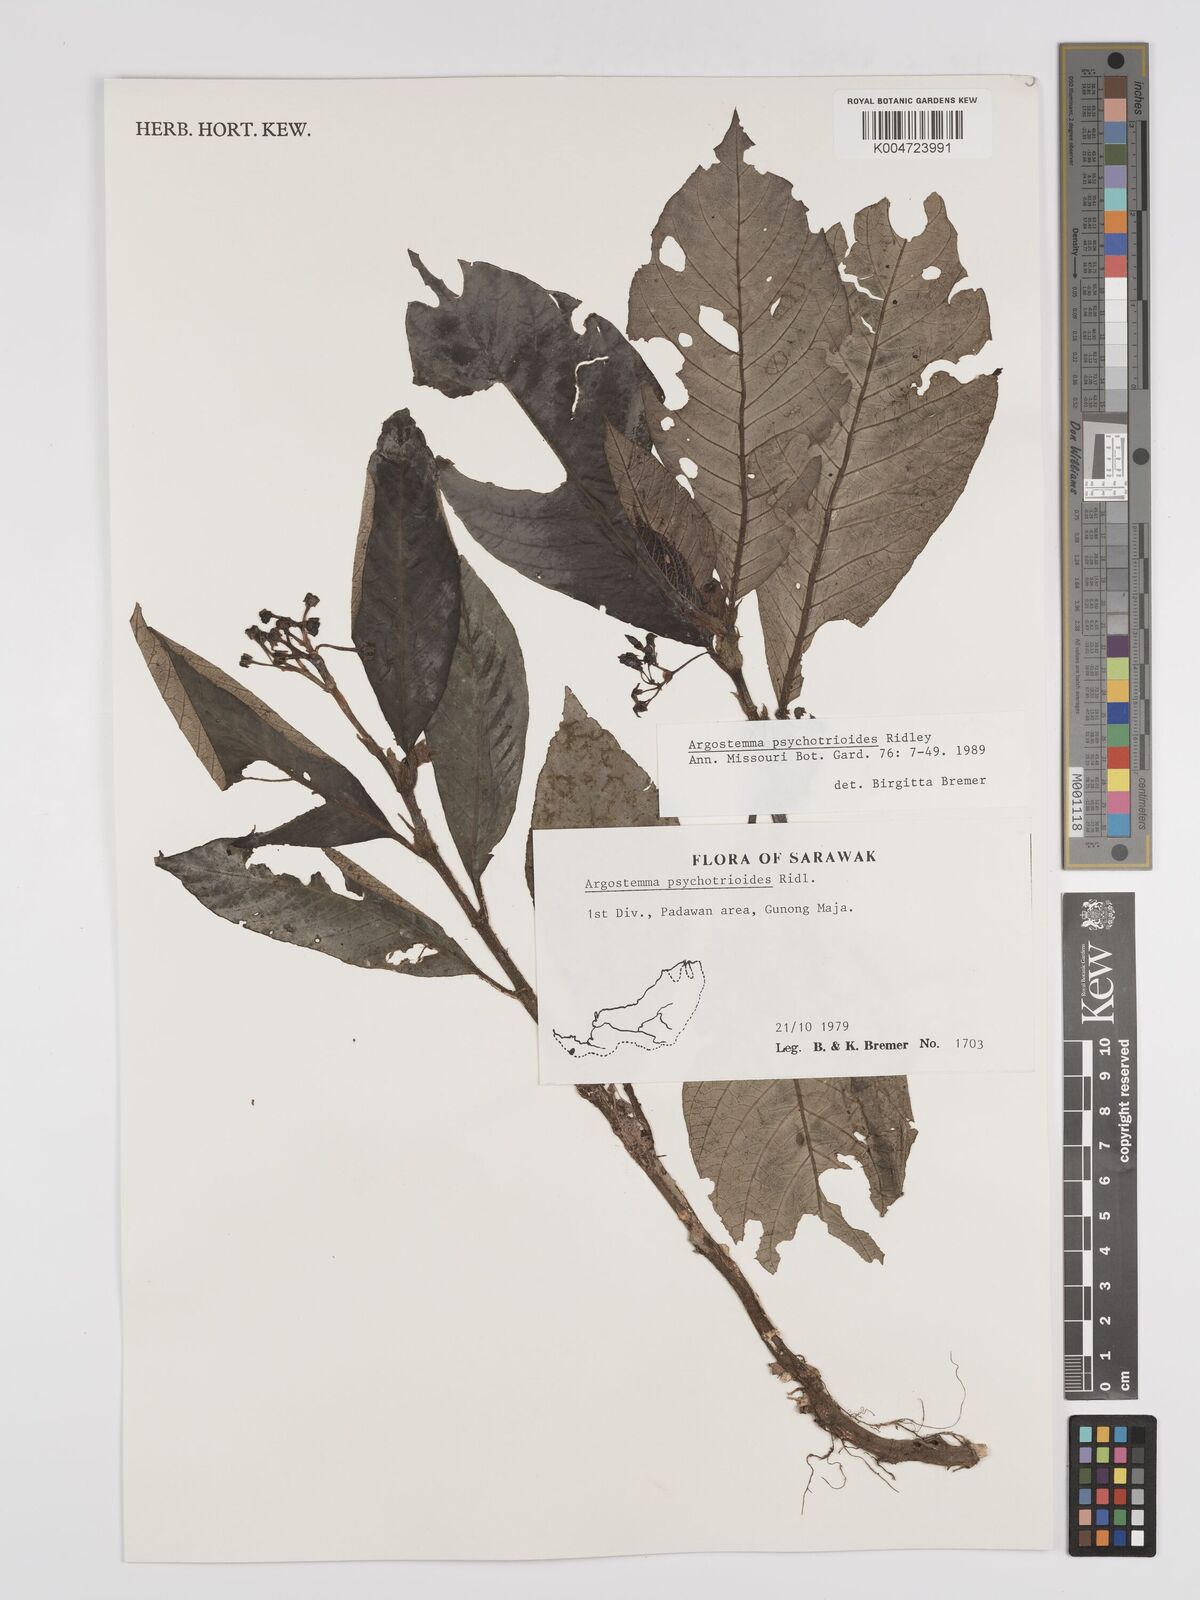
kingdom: Plantae
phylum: Tracheophyta
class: Magnoliopsida
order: Gentianales
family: Rubiaceae
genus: Argostemma
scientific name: Argostemma psychotrioides
